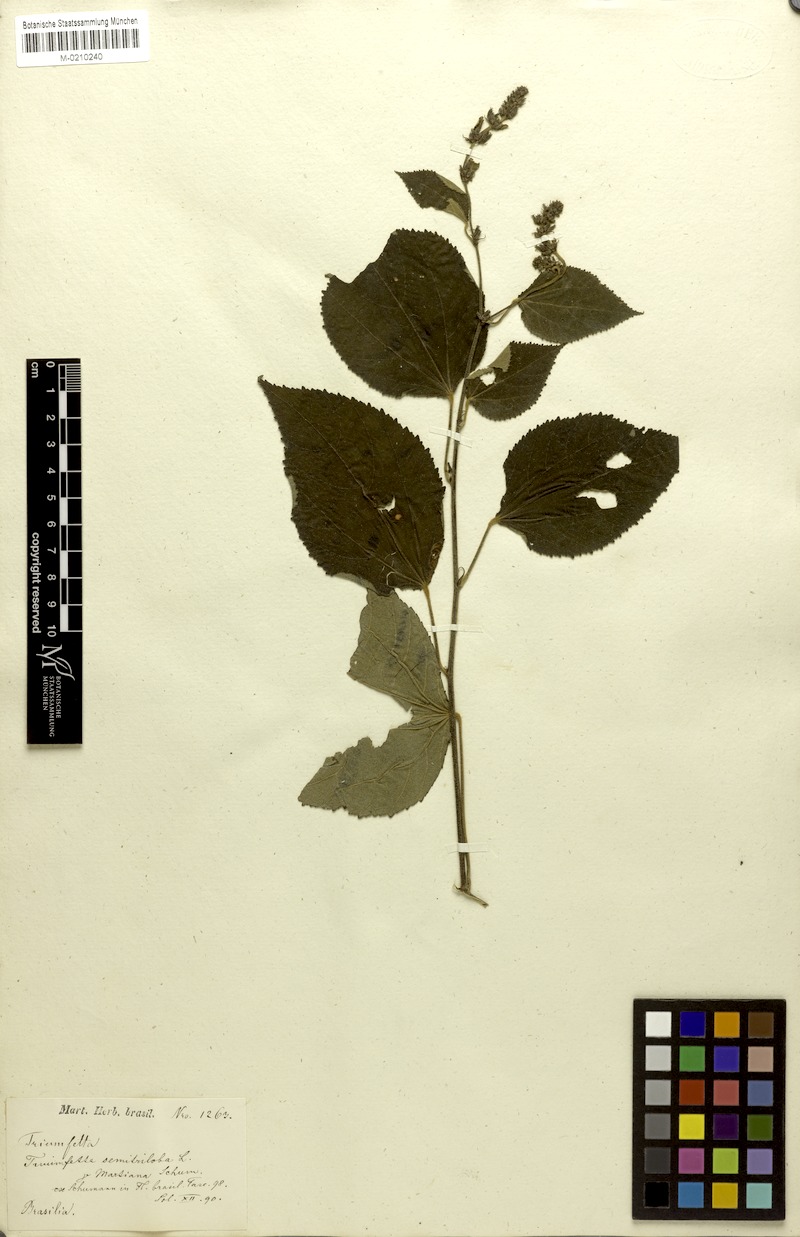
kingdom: Plantae
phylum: Tracheophyta
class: Magnoliopsida
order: Malvales
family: Malvaceae
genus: Triumfetta
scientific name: Triumfetta semitriloba
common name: Sacramento burbark
